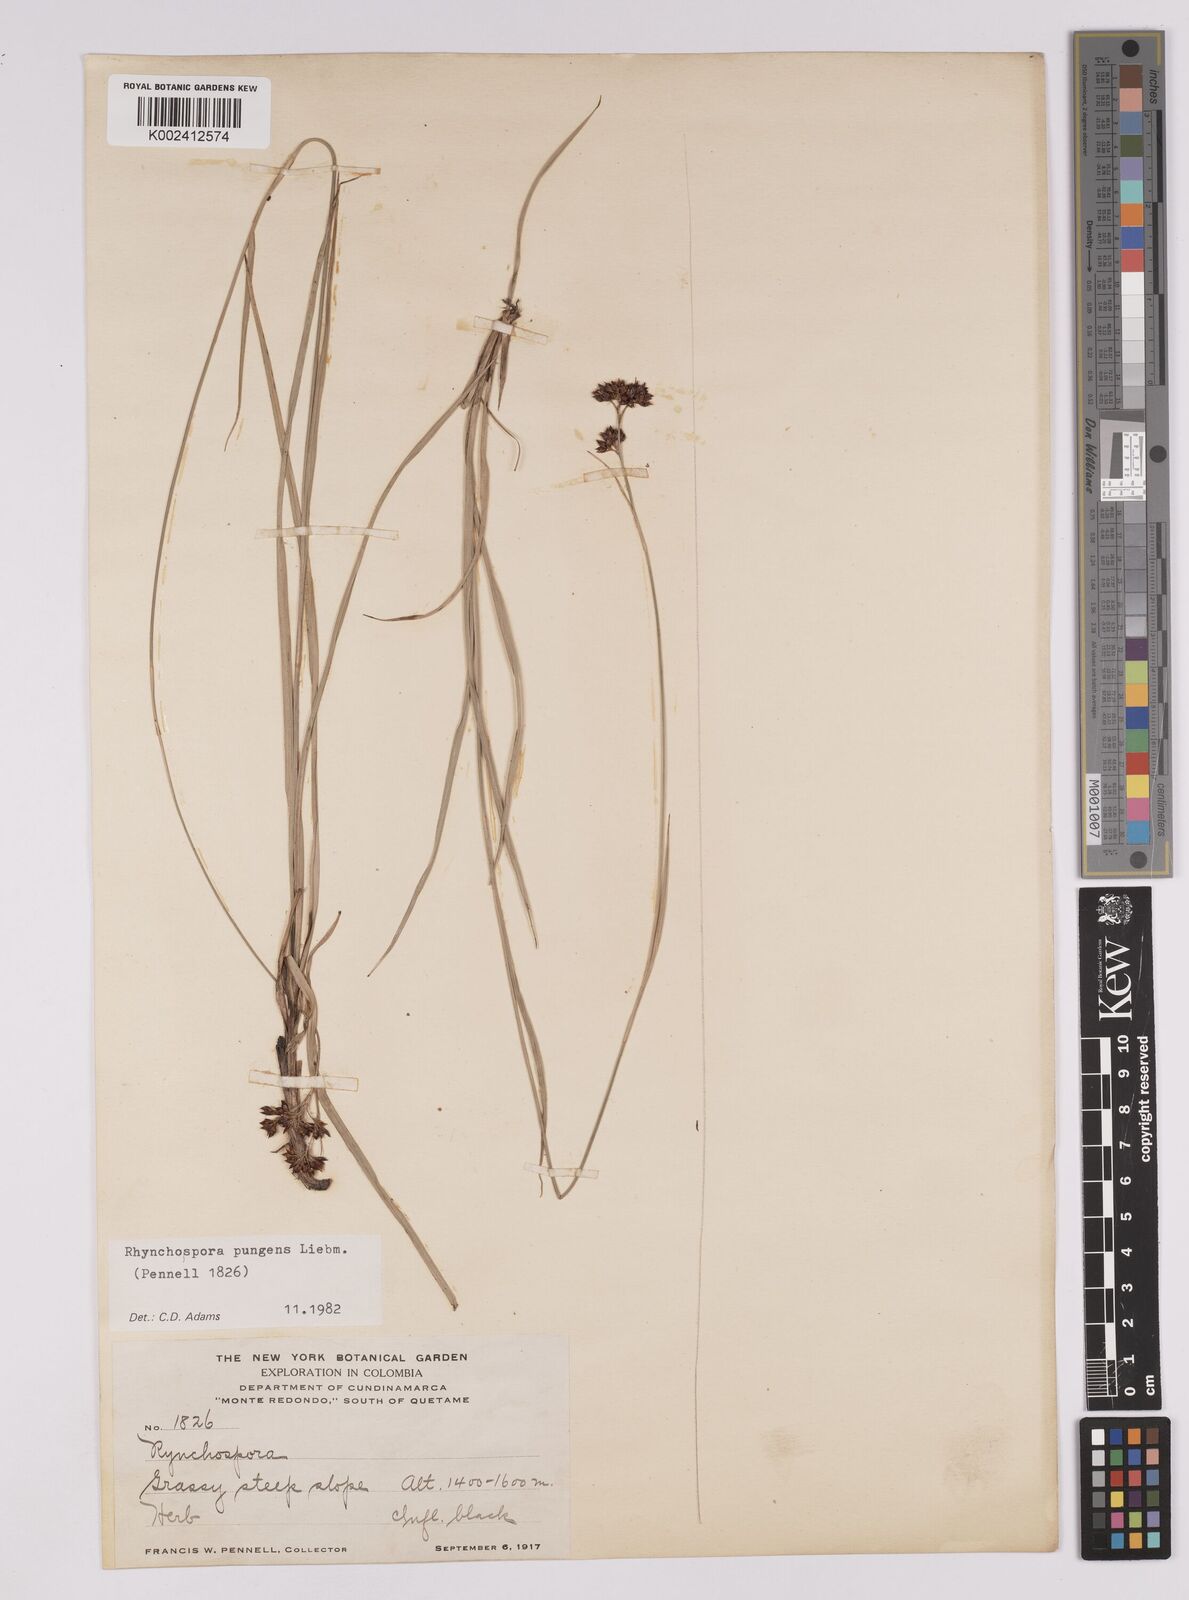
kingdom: Plantae
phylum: Tracheophyta
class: Liliopsida
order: Poales
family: Cyperaceae
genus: Rhynchospora
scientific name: Rhynchospora rugosa
